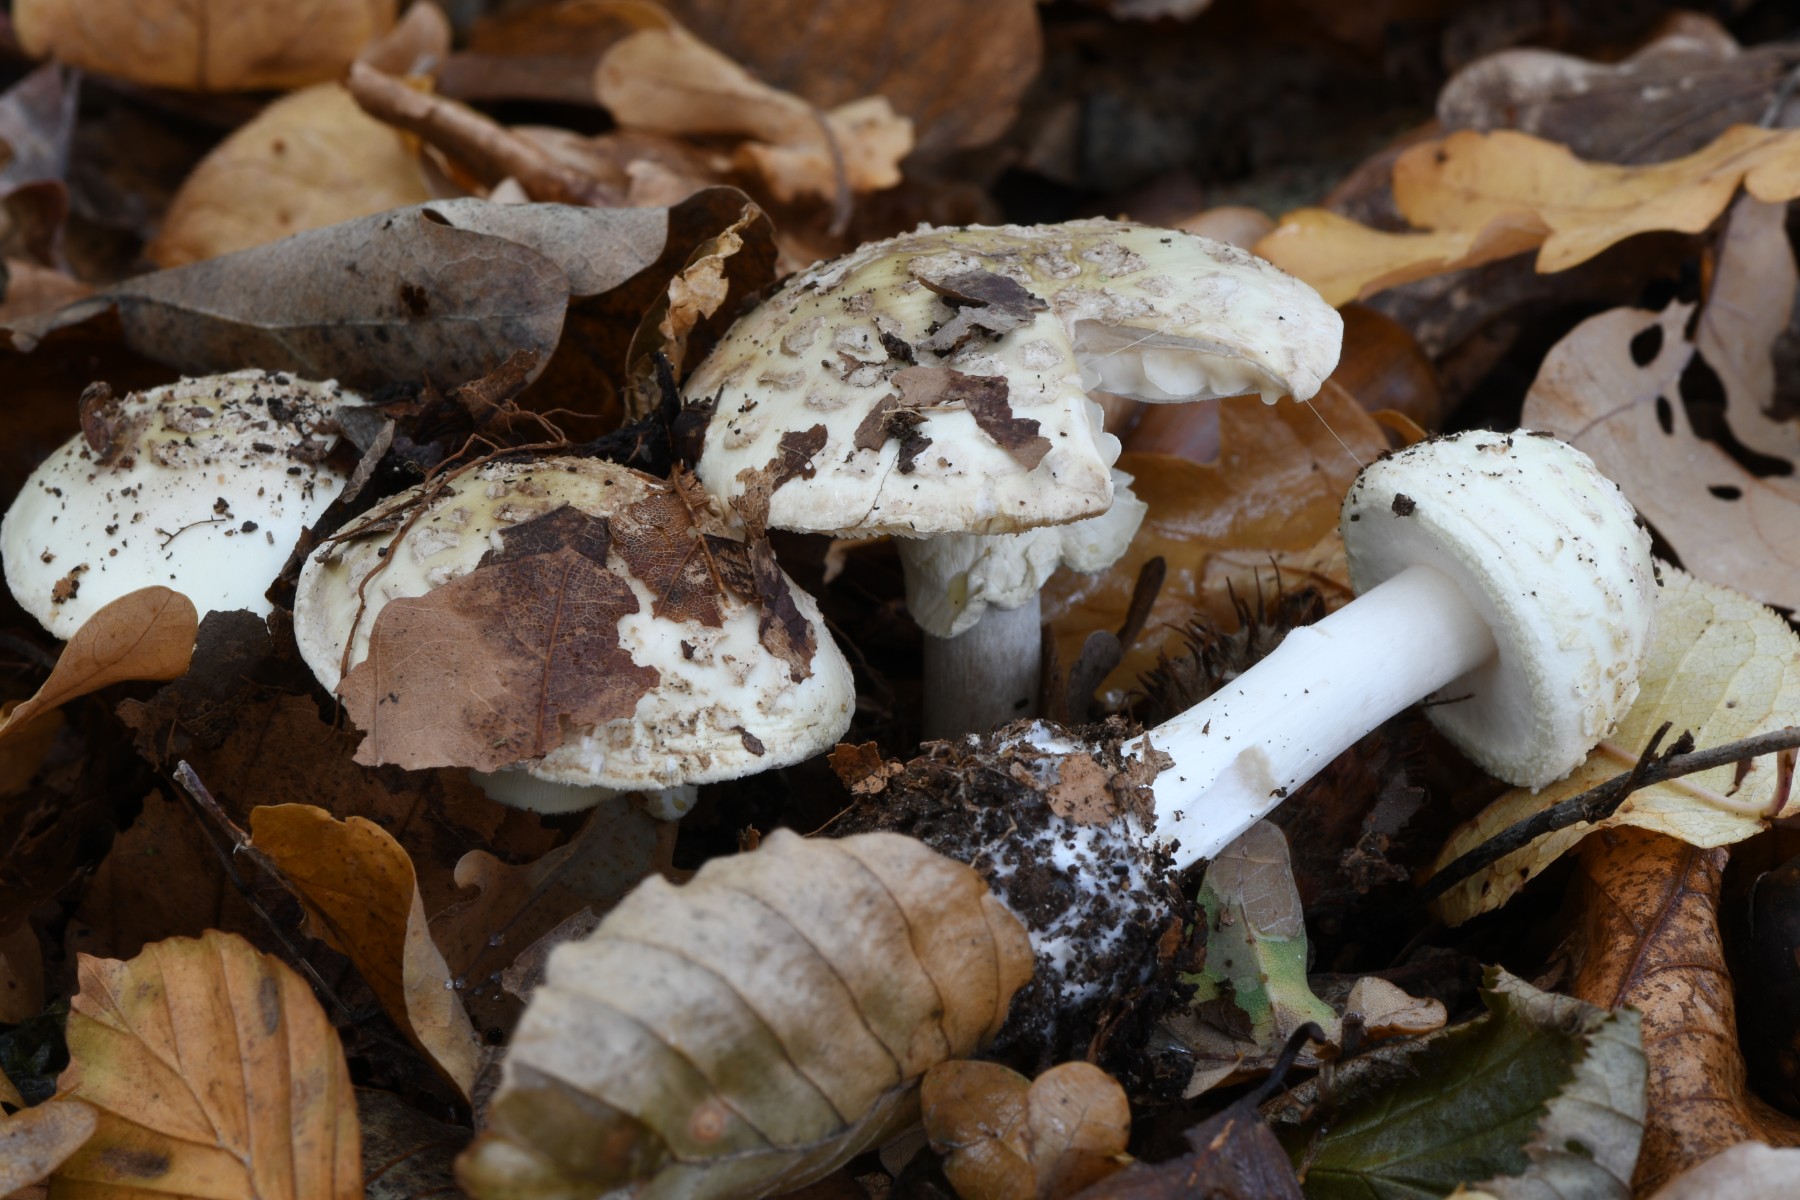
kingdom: Fungi
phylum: Basidiomycota
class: Agaricomycetes
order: Agaricales
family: Amanitaceae
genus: Amanita
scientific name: Amanita citrina
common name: kugleknoldet fluesvamp
